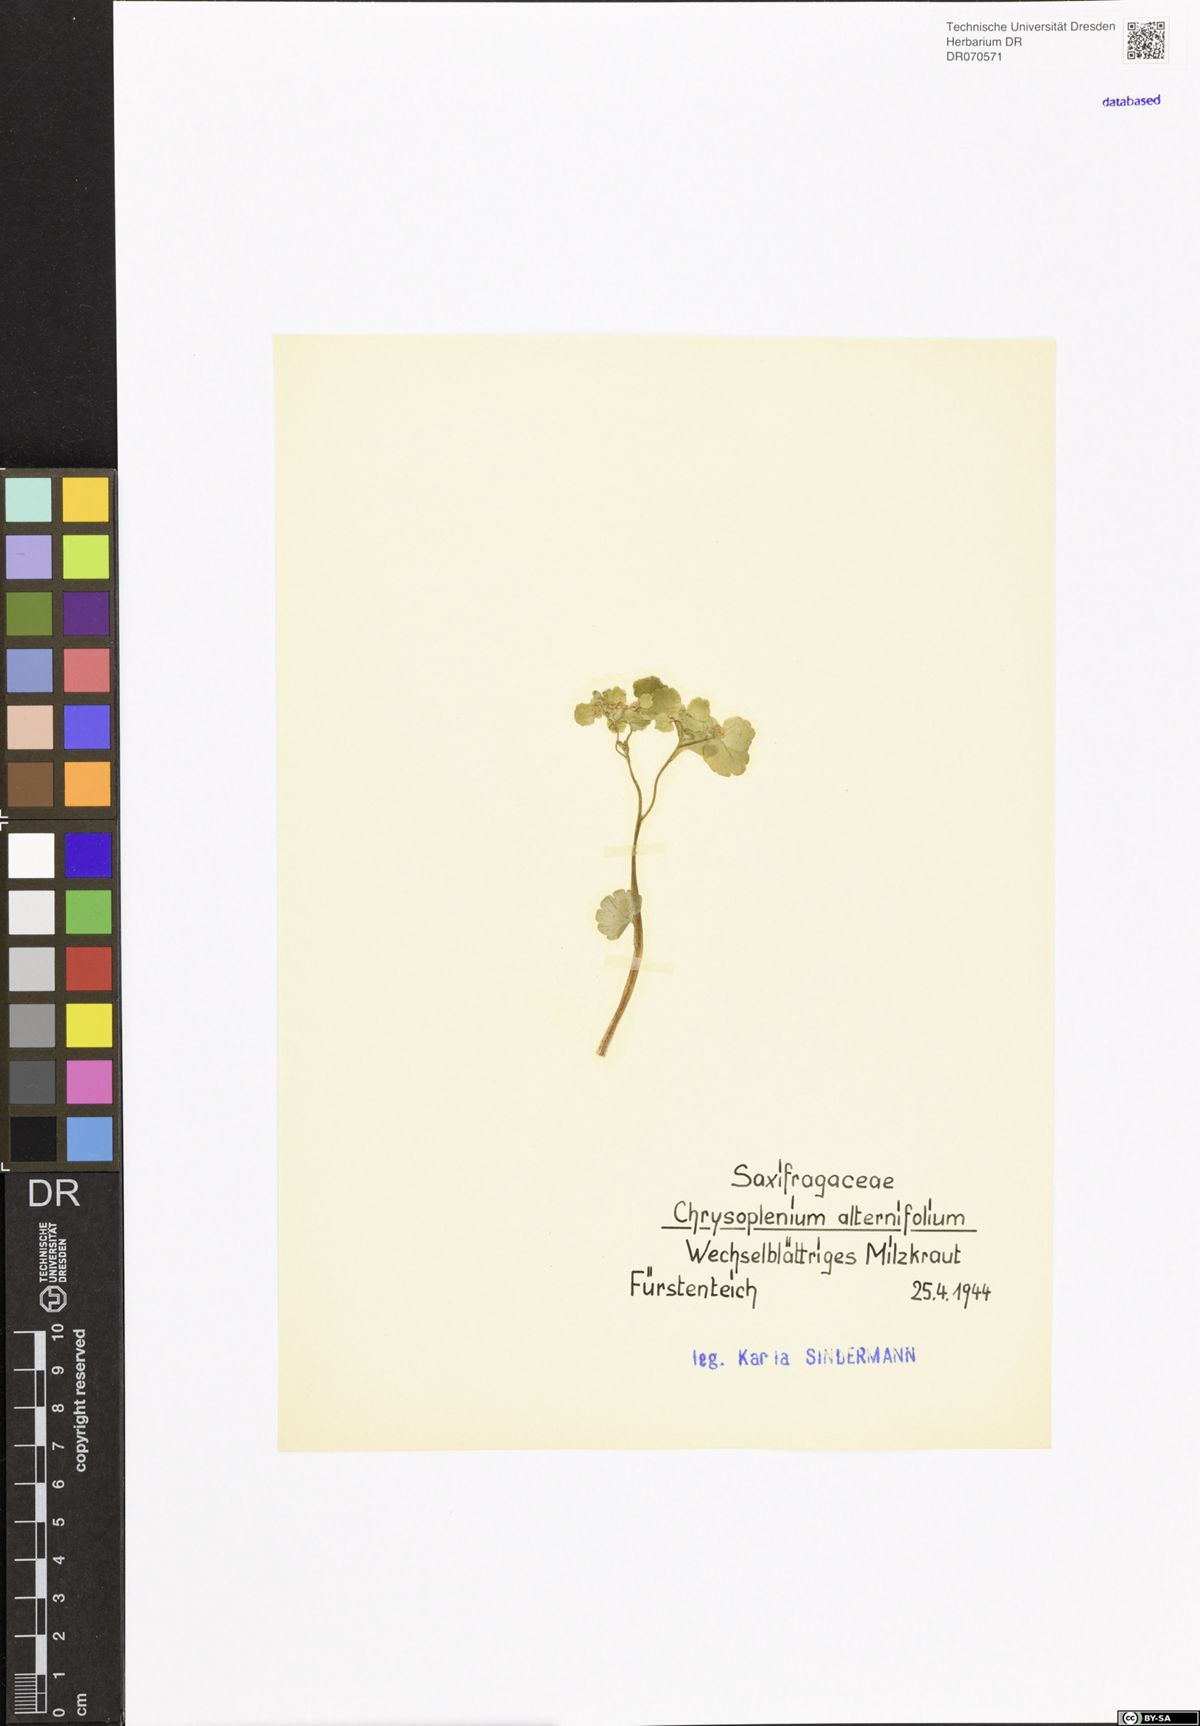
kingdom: Plantae
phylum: Tracheophyta
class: Magnoliopsida
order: Saxifragales
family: Saxifragaceae
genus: Chrysosplenium
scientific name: Chrysosplenium alternifolium
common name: Alternate-leaved golden-saxifrage
